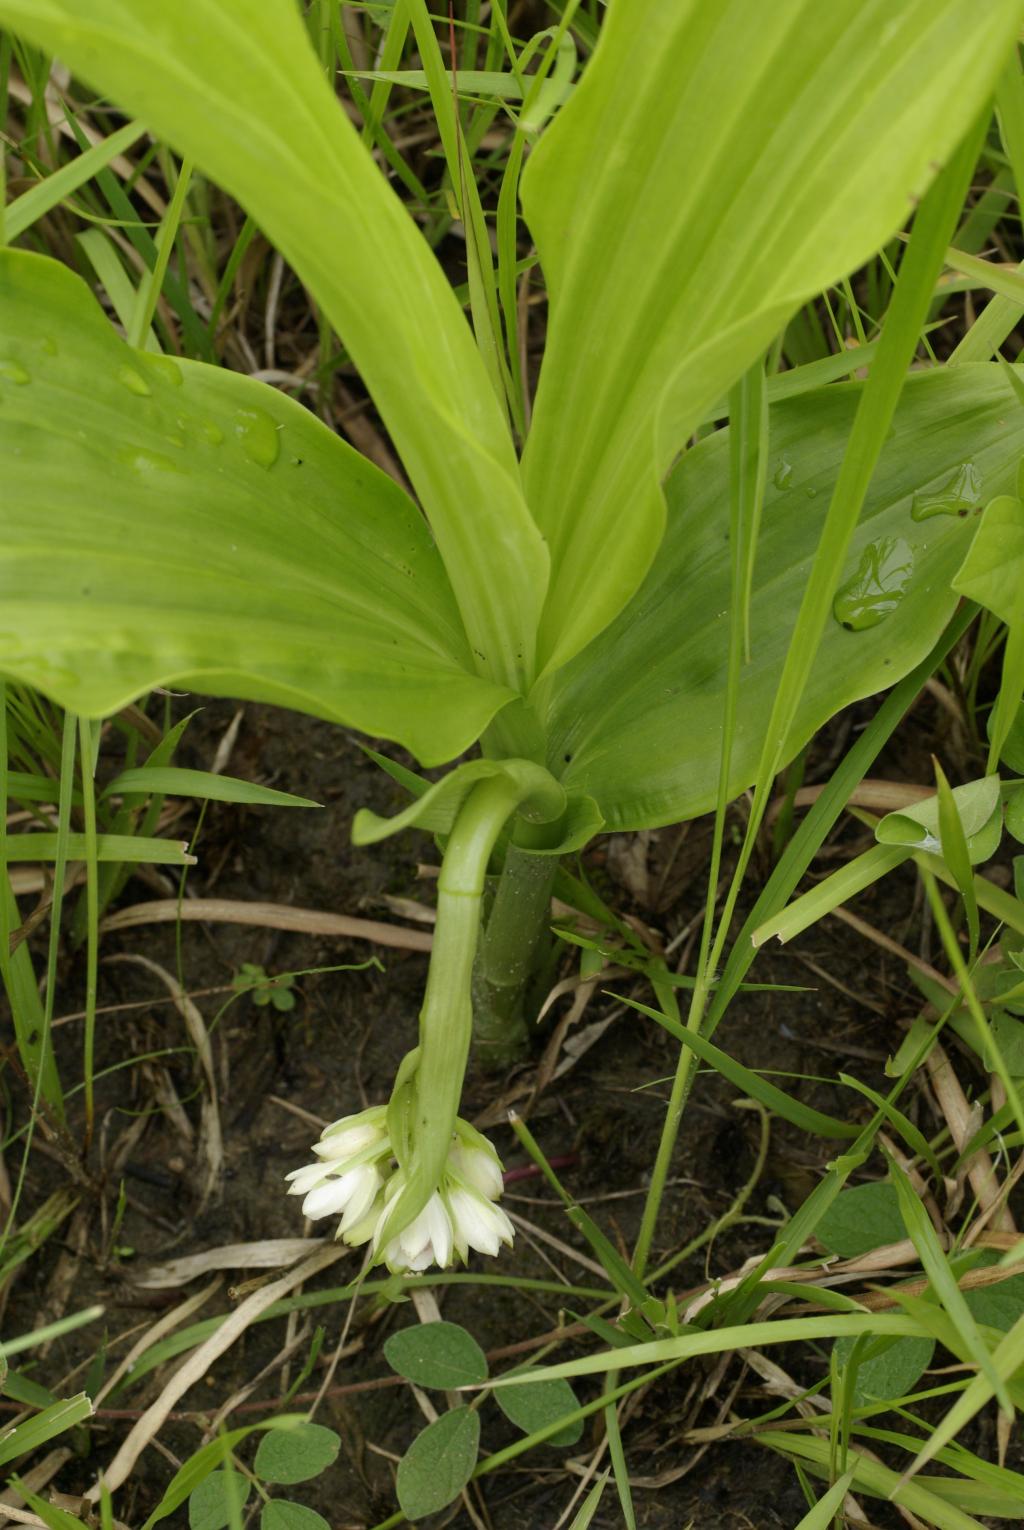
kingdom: Plantae
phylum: Tracheophyta
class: Liliopsida
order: Asparagales
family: Orchidaceae
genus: Eulophia
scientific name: Eulophia cernua
